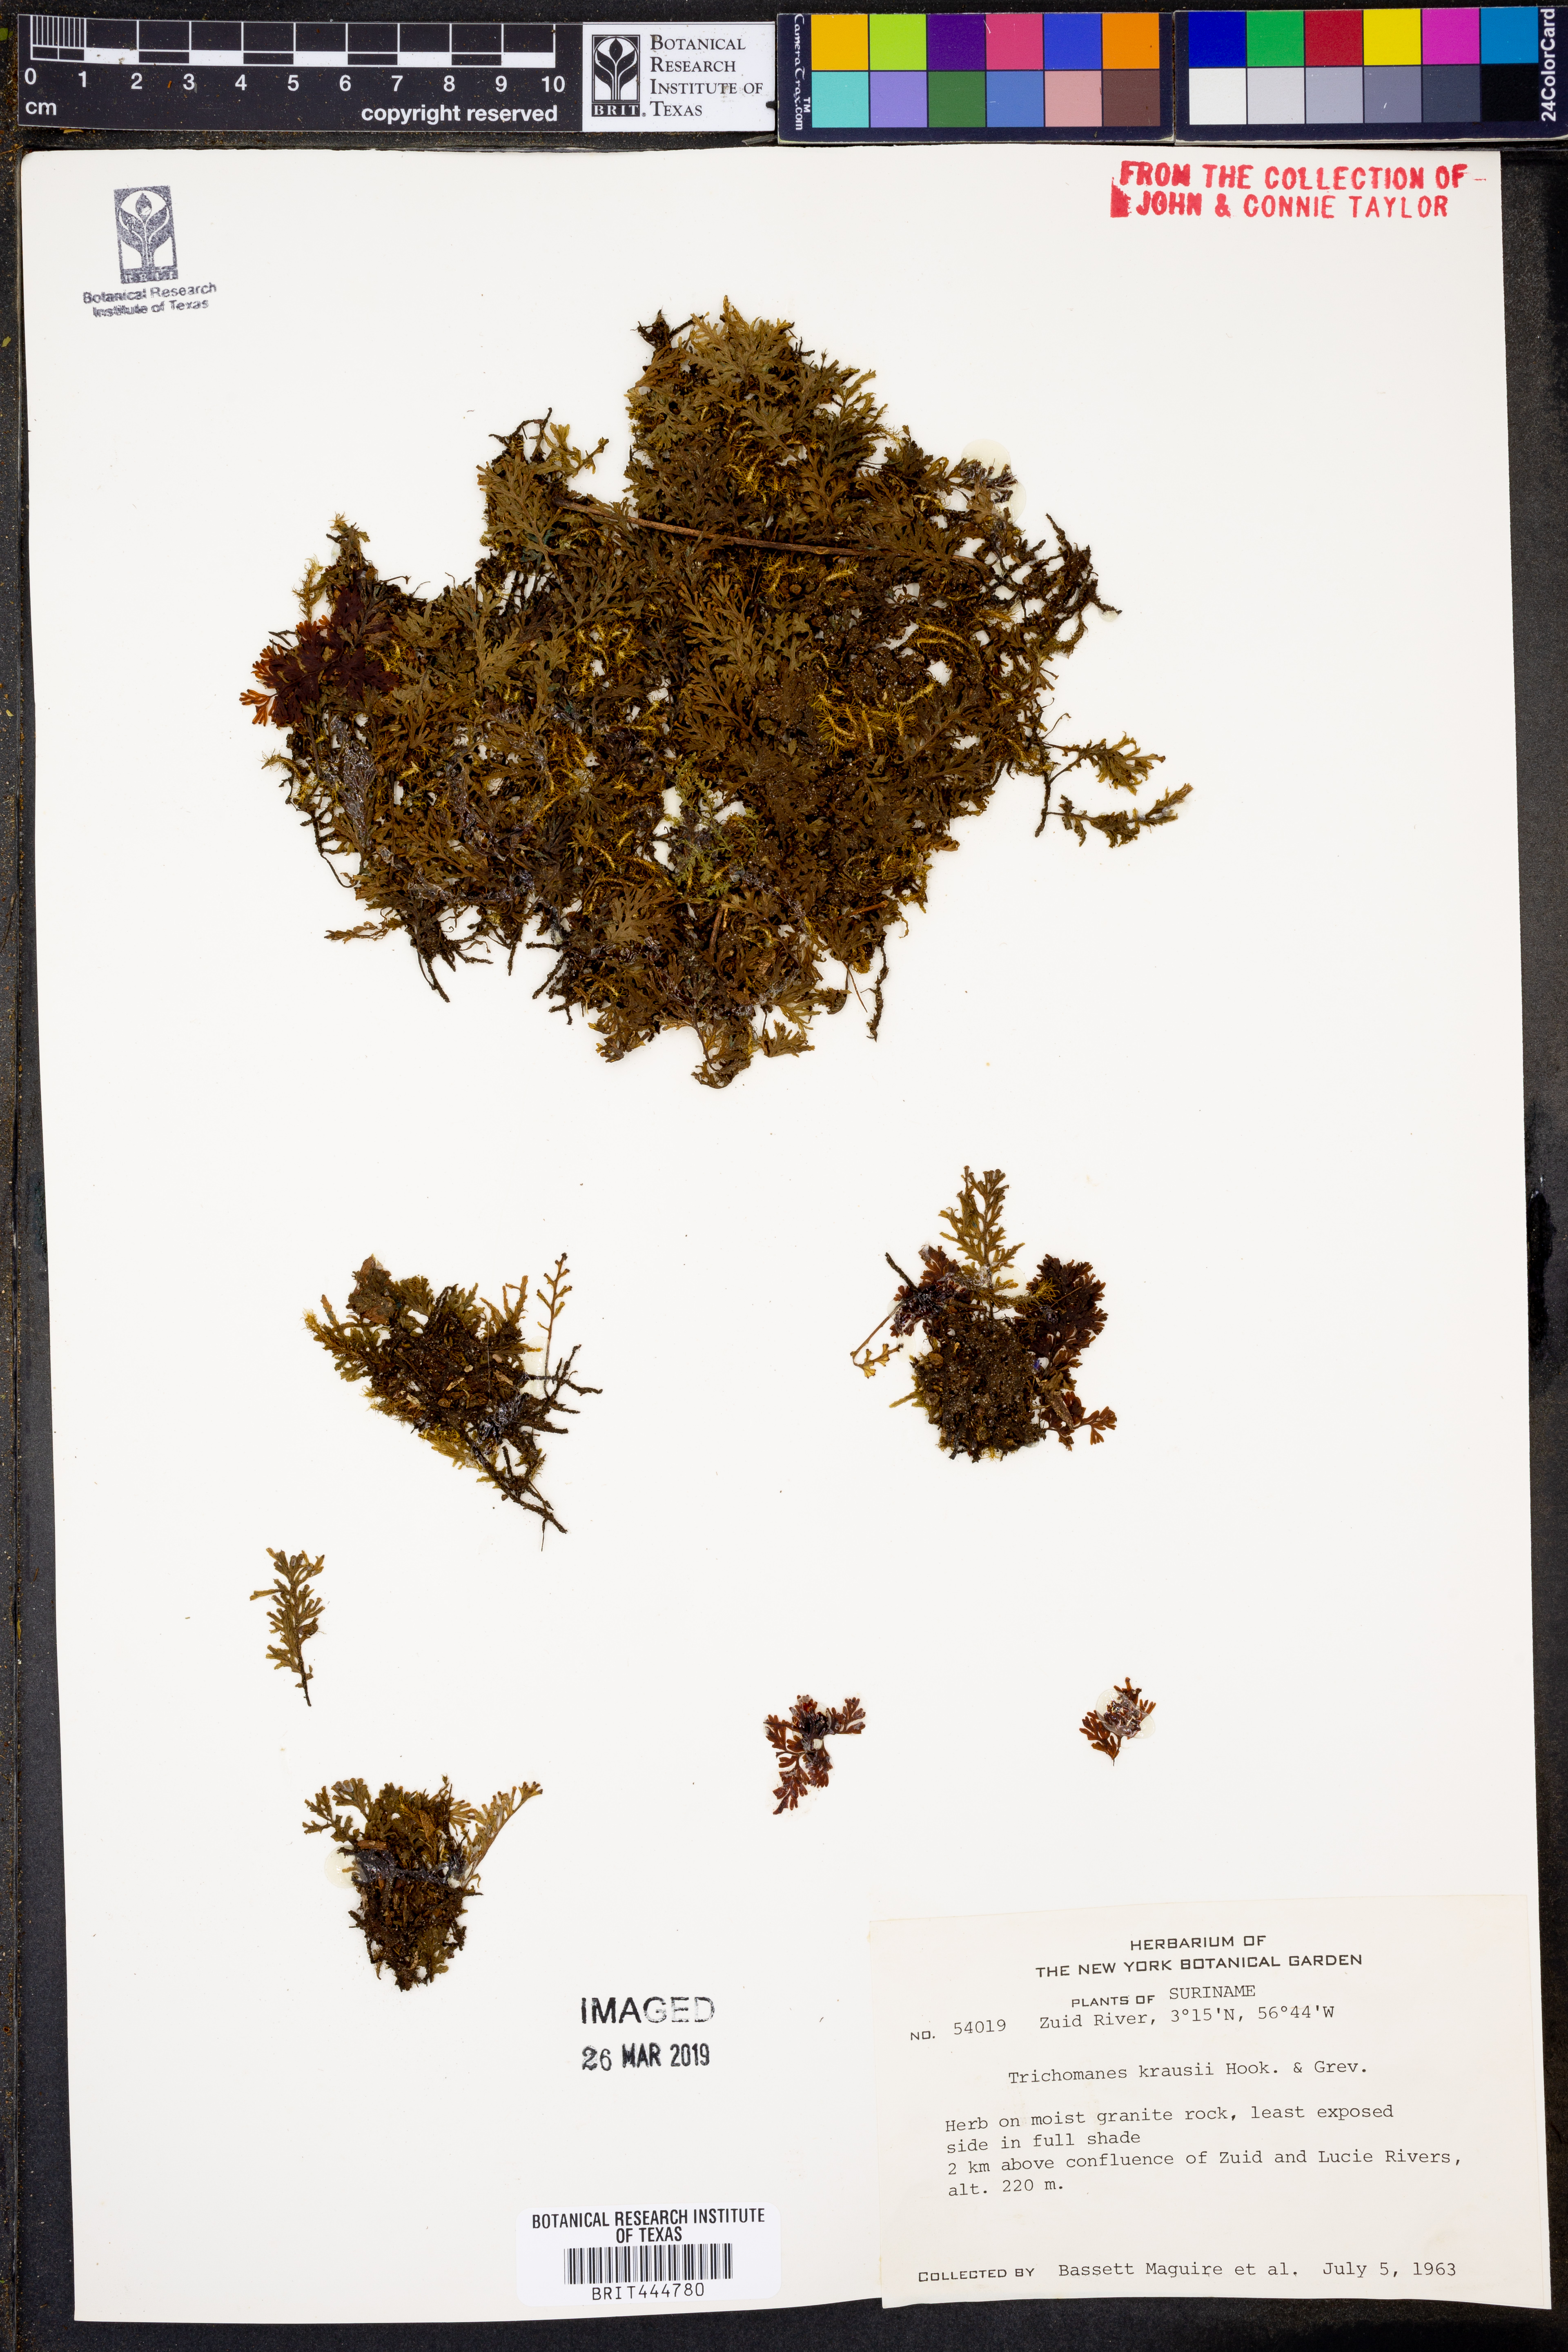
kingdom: Plantae
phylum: Tracheophyta
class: Polypodiopsida
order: Hymenophyllales
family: Hymenophyllaceae
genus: Didymoglossum
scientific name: Didymoglossum kraussii
